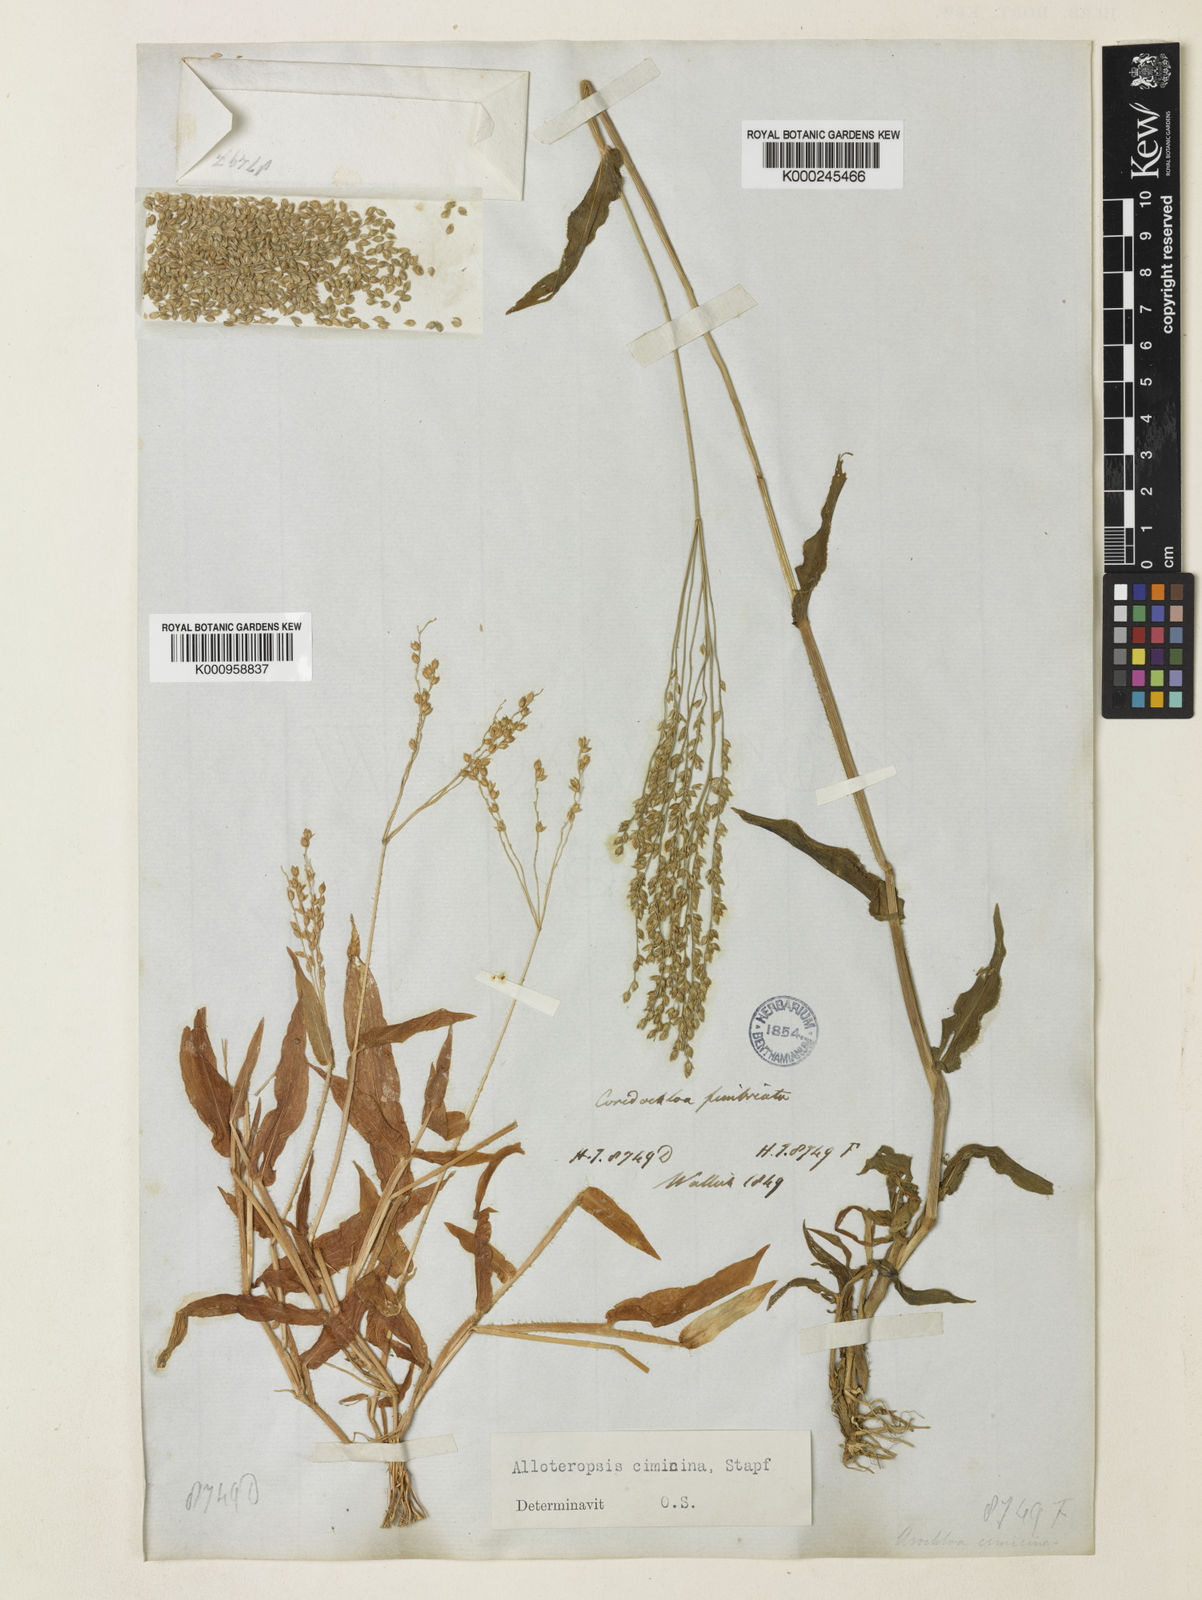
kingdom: Plantae
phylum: Tracheophyta
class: Liliopsida
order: Poales
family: Poaceae
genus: Alloteropsis
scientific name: Alloteropsis cimicina
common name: Summergrass
